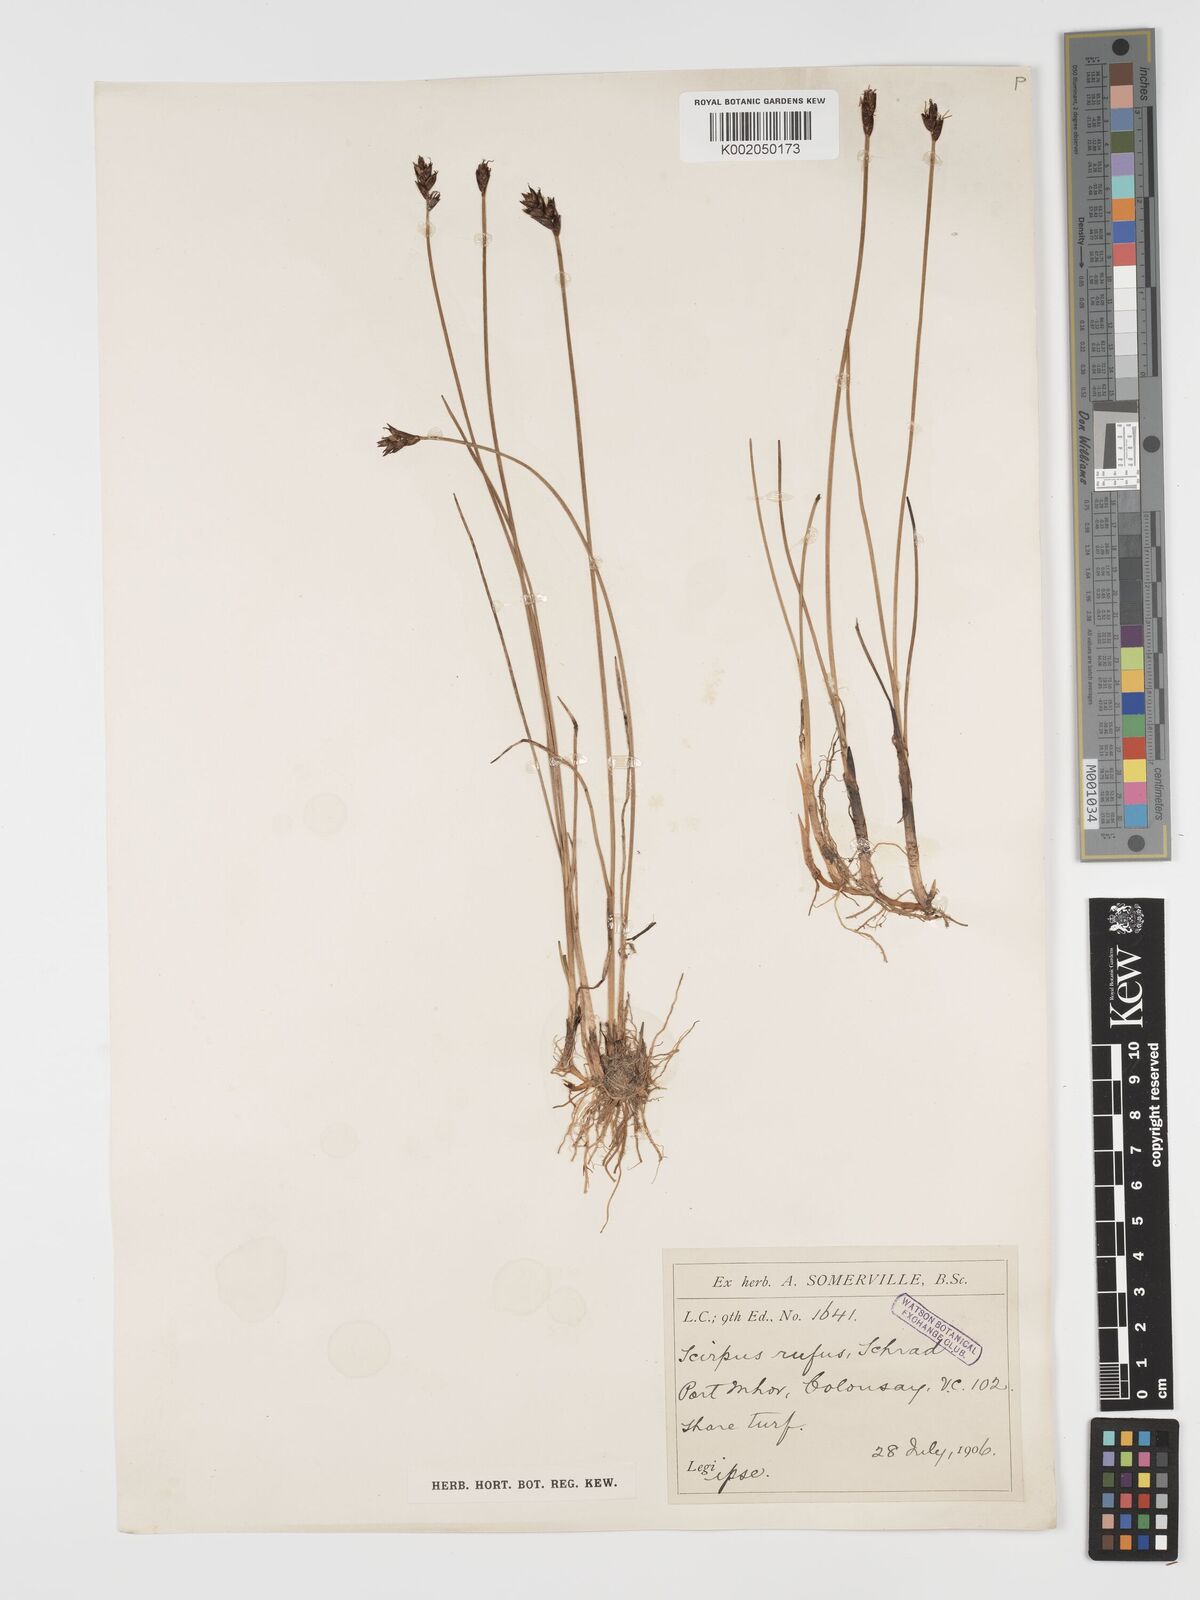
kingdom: Plantae
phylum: Tracheophyta
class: Liliopsida
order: Poales
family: Cyperaceae
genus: Blysmus
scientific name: Blysmus rufus
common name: Saltmarsh flat-sedge
